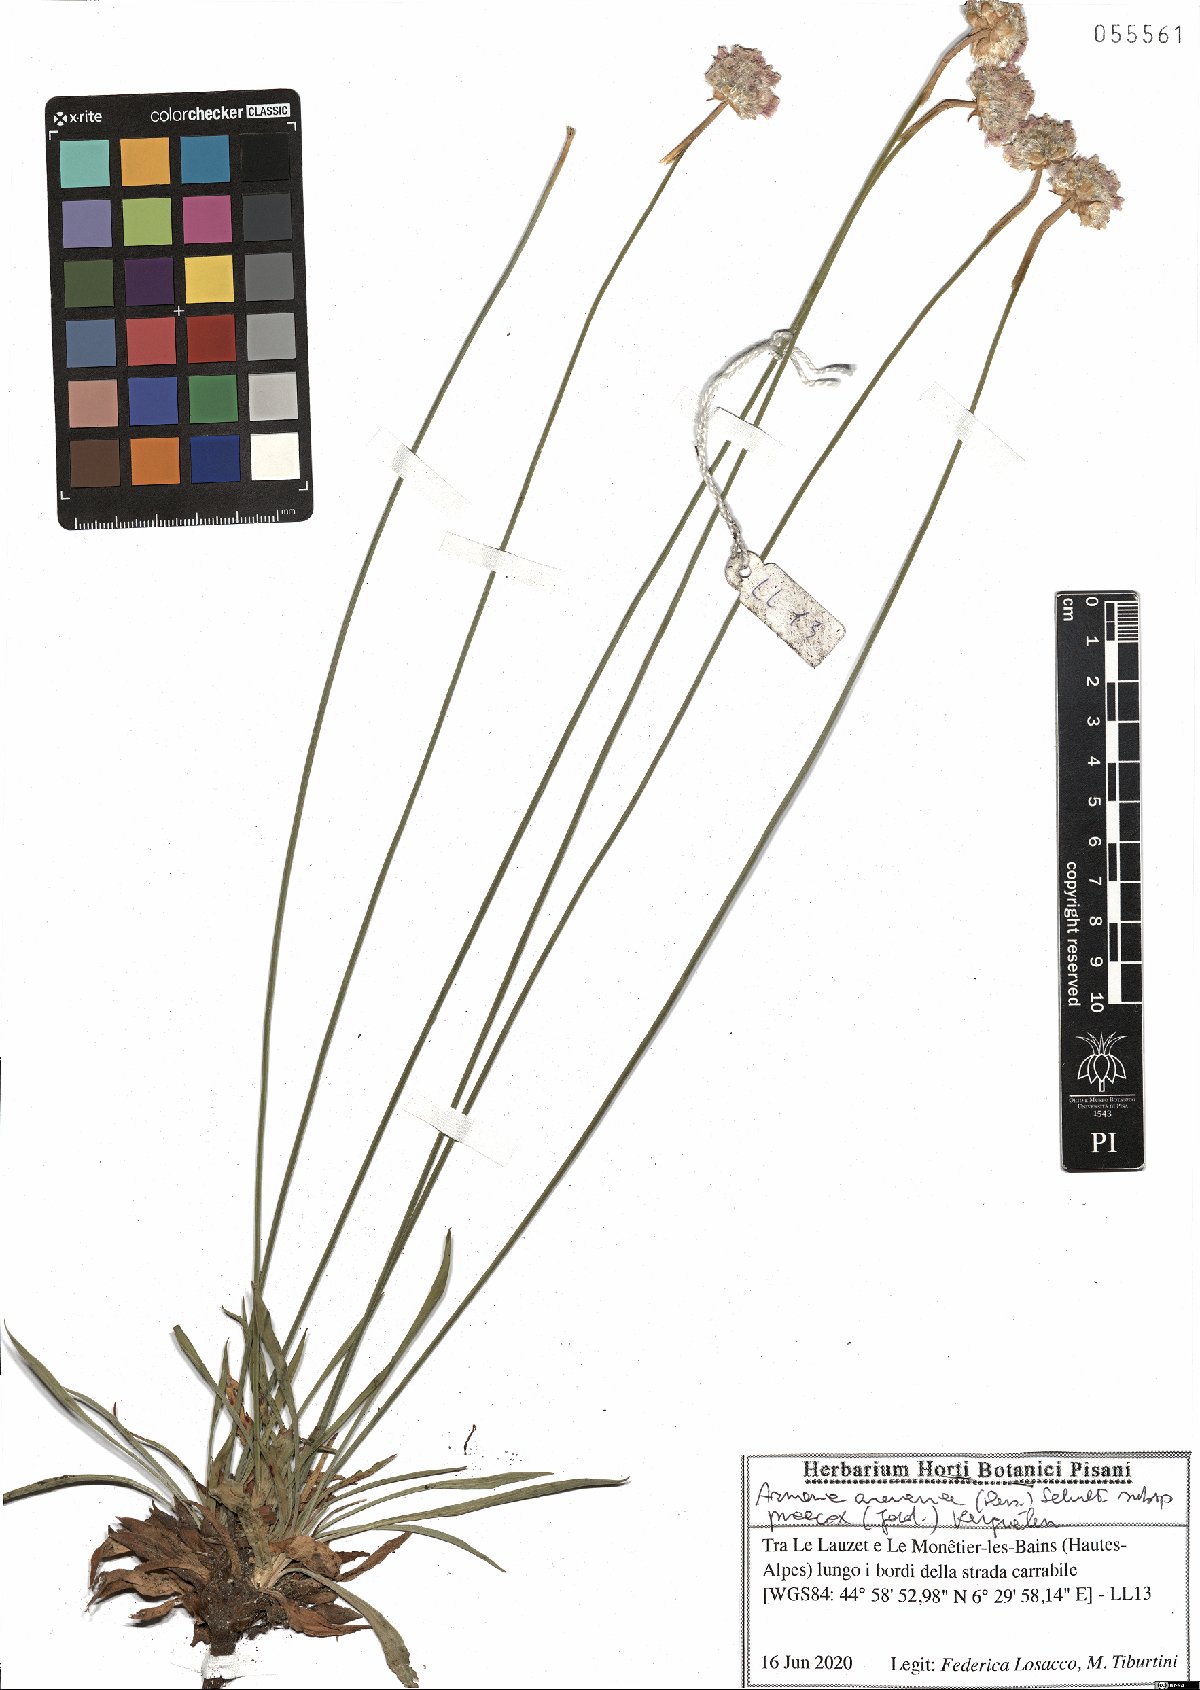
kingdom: Plantae
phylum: Tracheophyta
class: Magnoliopsida
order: Caryophyllales
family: Plumbaginaceae
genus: Armeria
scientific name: Armeria arenaria
